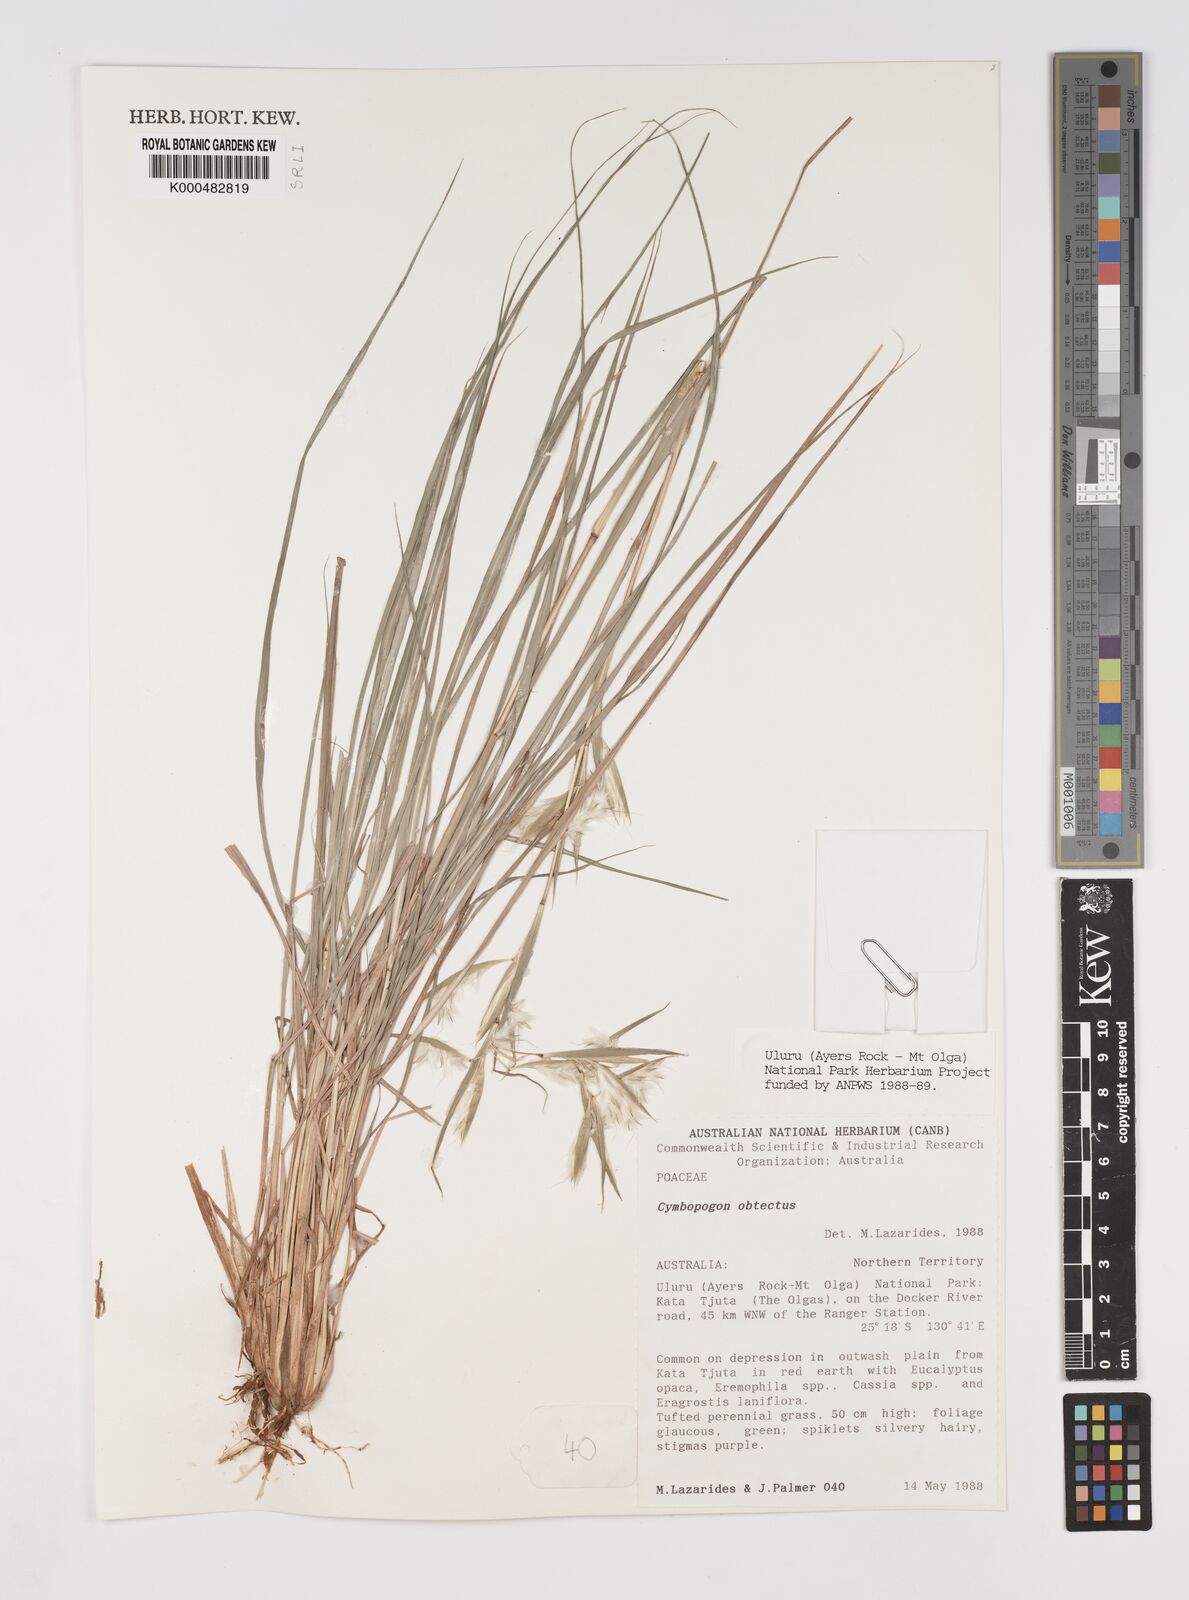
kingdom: Plantae
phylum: Tracheophyta
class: Liliopsida
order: Poales
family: Poaceae
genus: Cymbopogon
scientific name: Cymbopogon obtectus
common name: Silky heads
